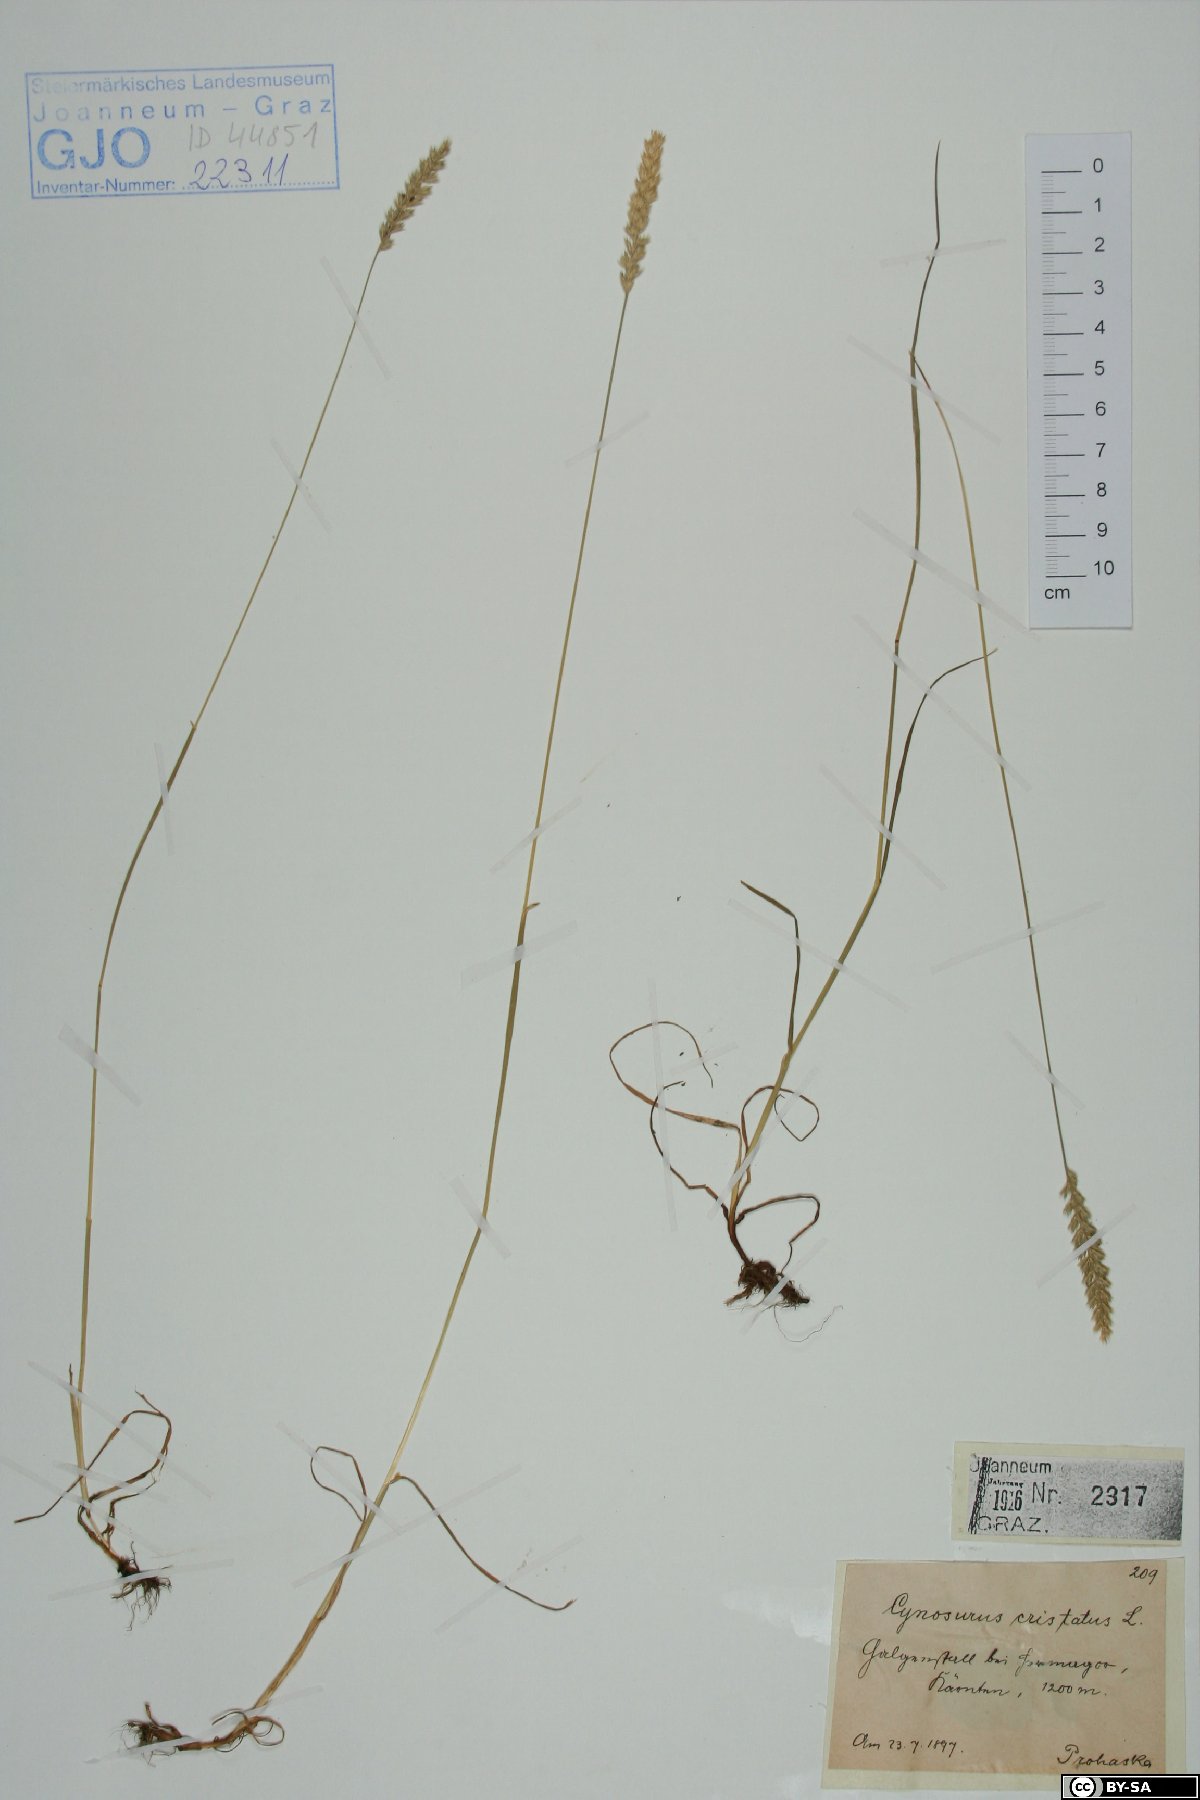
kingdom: Plantae
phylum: Tracheophyta
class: Liliopsida
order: Poales
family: Poaceae
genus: Cynosurus
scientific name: Cynosurus cristatus
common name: Crested dog's-tail
